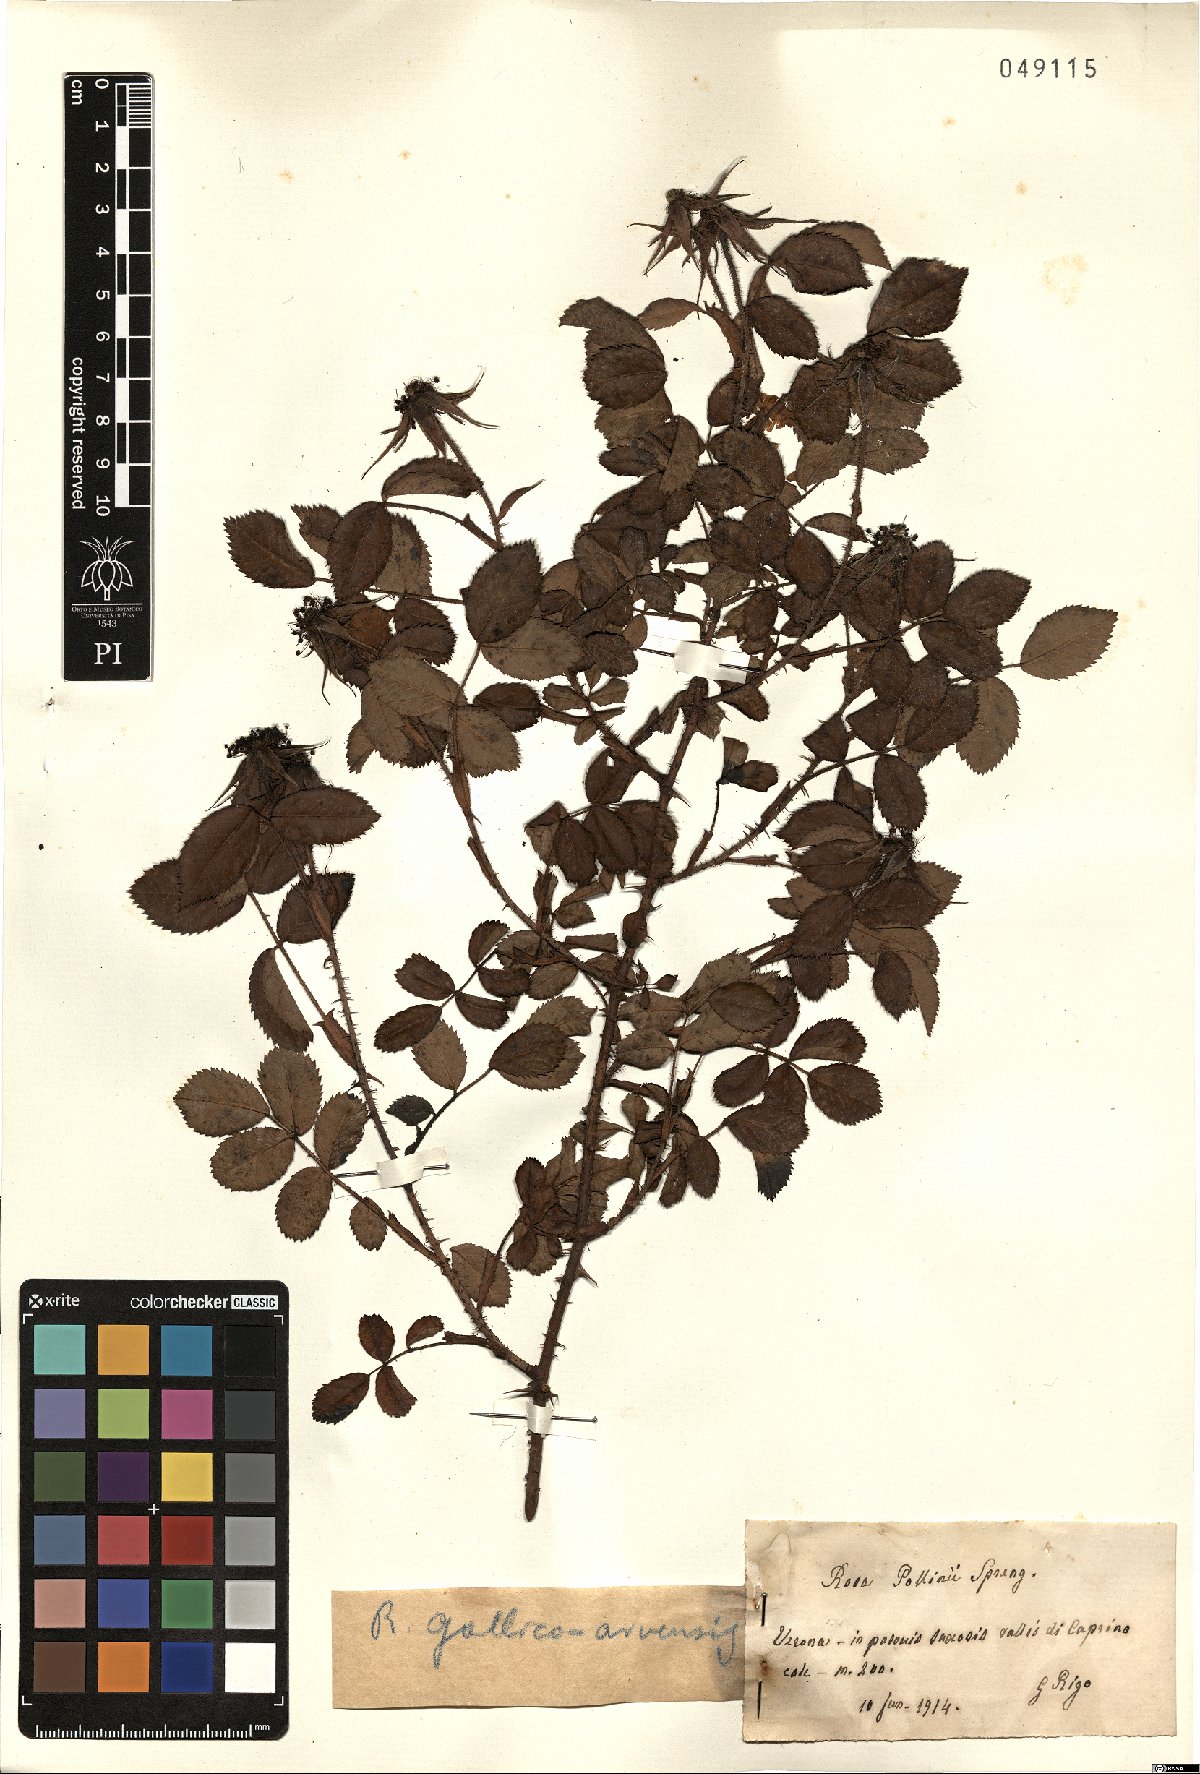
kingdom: Plantae
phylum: Tracheophyta
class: Magnoliopsida
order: Rosales
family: Rosaceae
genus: Rosa
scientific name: Rosa gallicoarvensis
